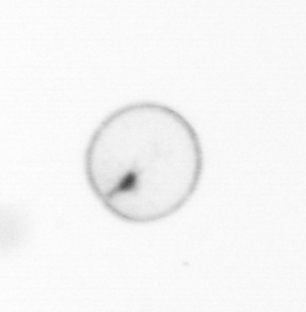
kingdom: Chromista
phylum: Myzozoa
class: Dinophyceae
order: Noctilucales
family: Noctilucaceae
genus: Noctiluca
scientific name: Noctiluca scintillans
